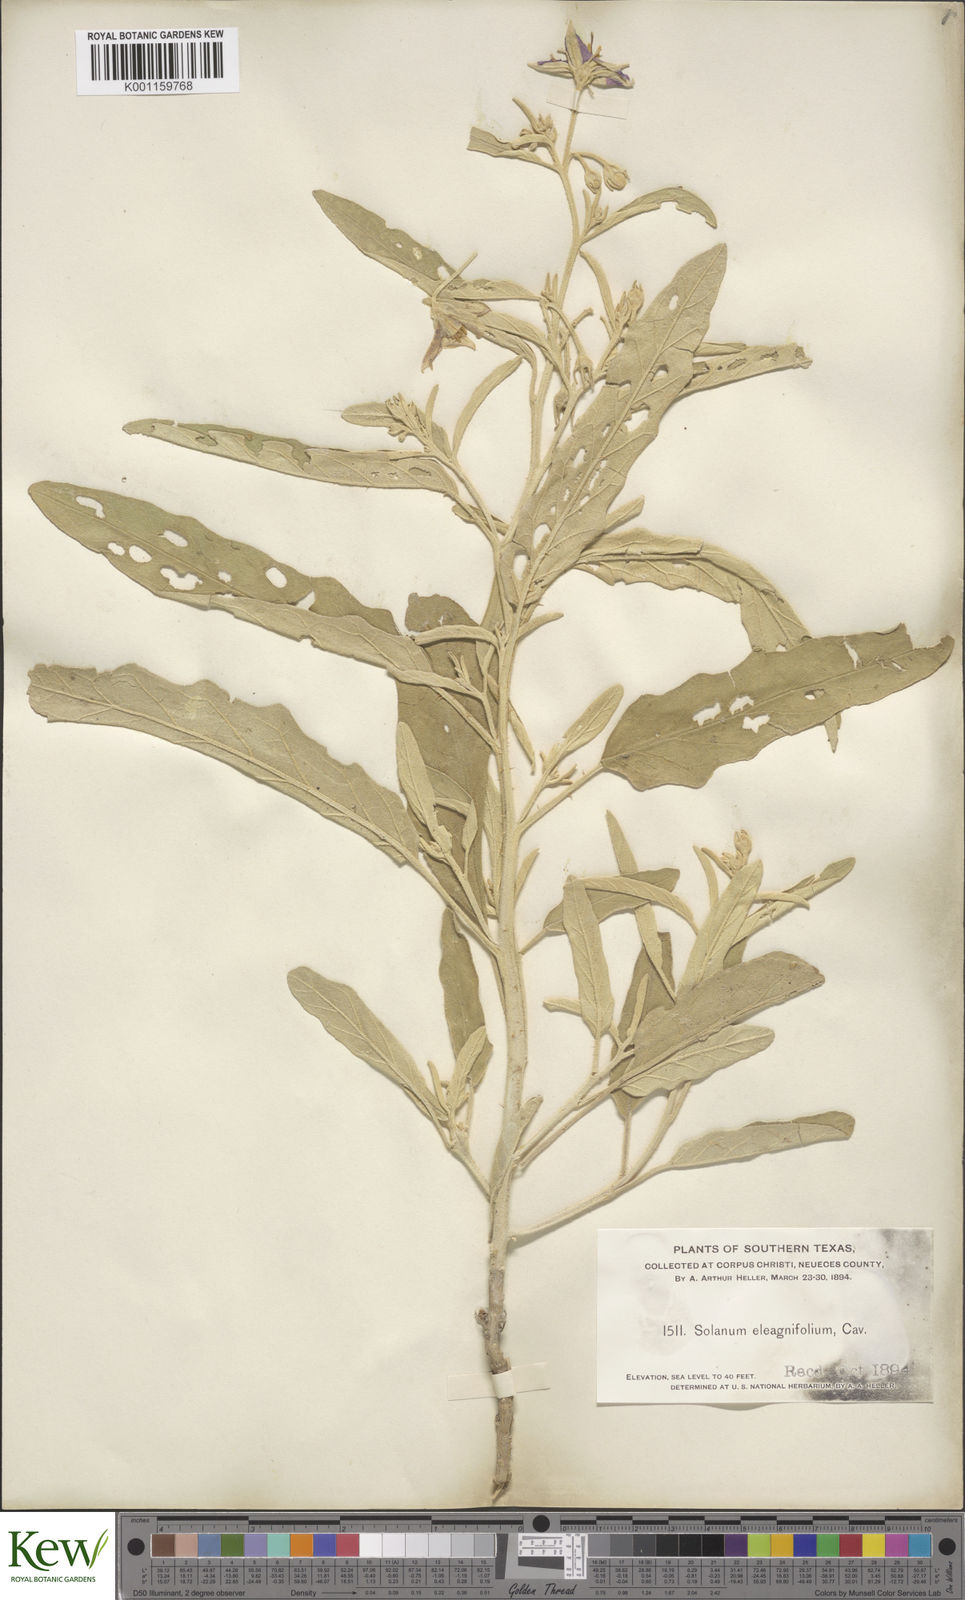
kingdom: Plantae
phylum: Tracheophyta
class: Magnoliopsida
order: Solanales
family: Solanaceae
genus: Solanum
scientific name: Solanum
